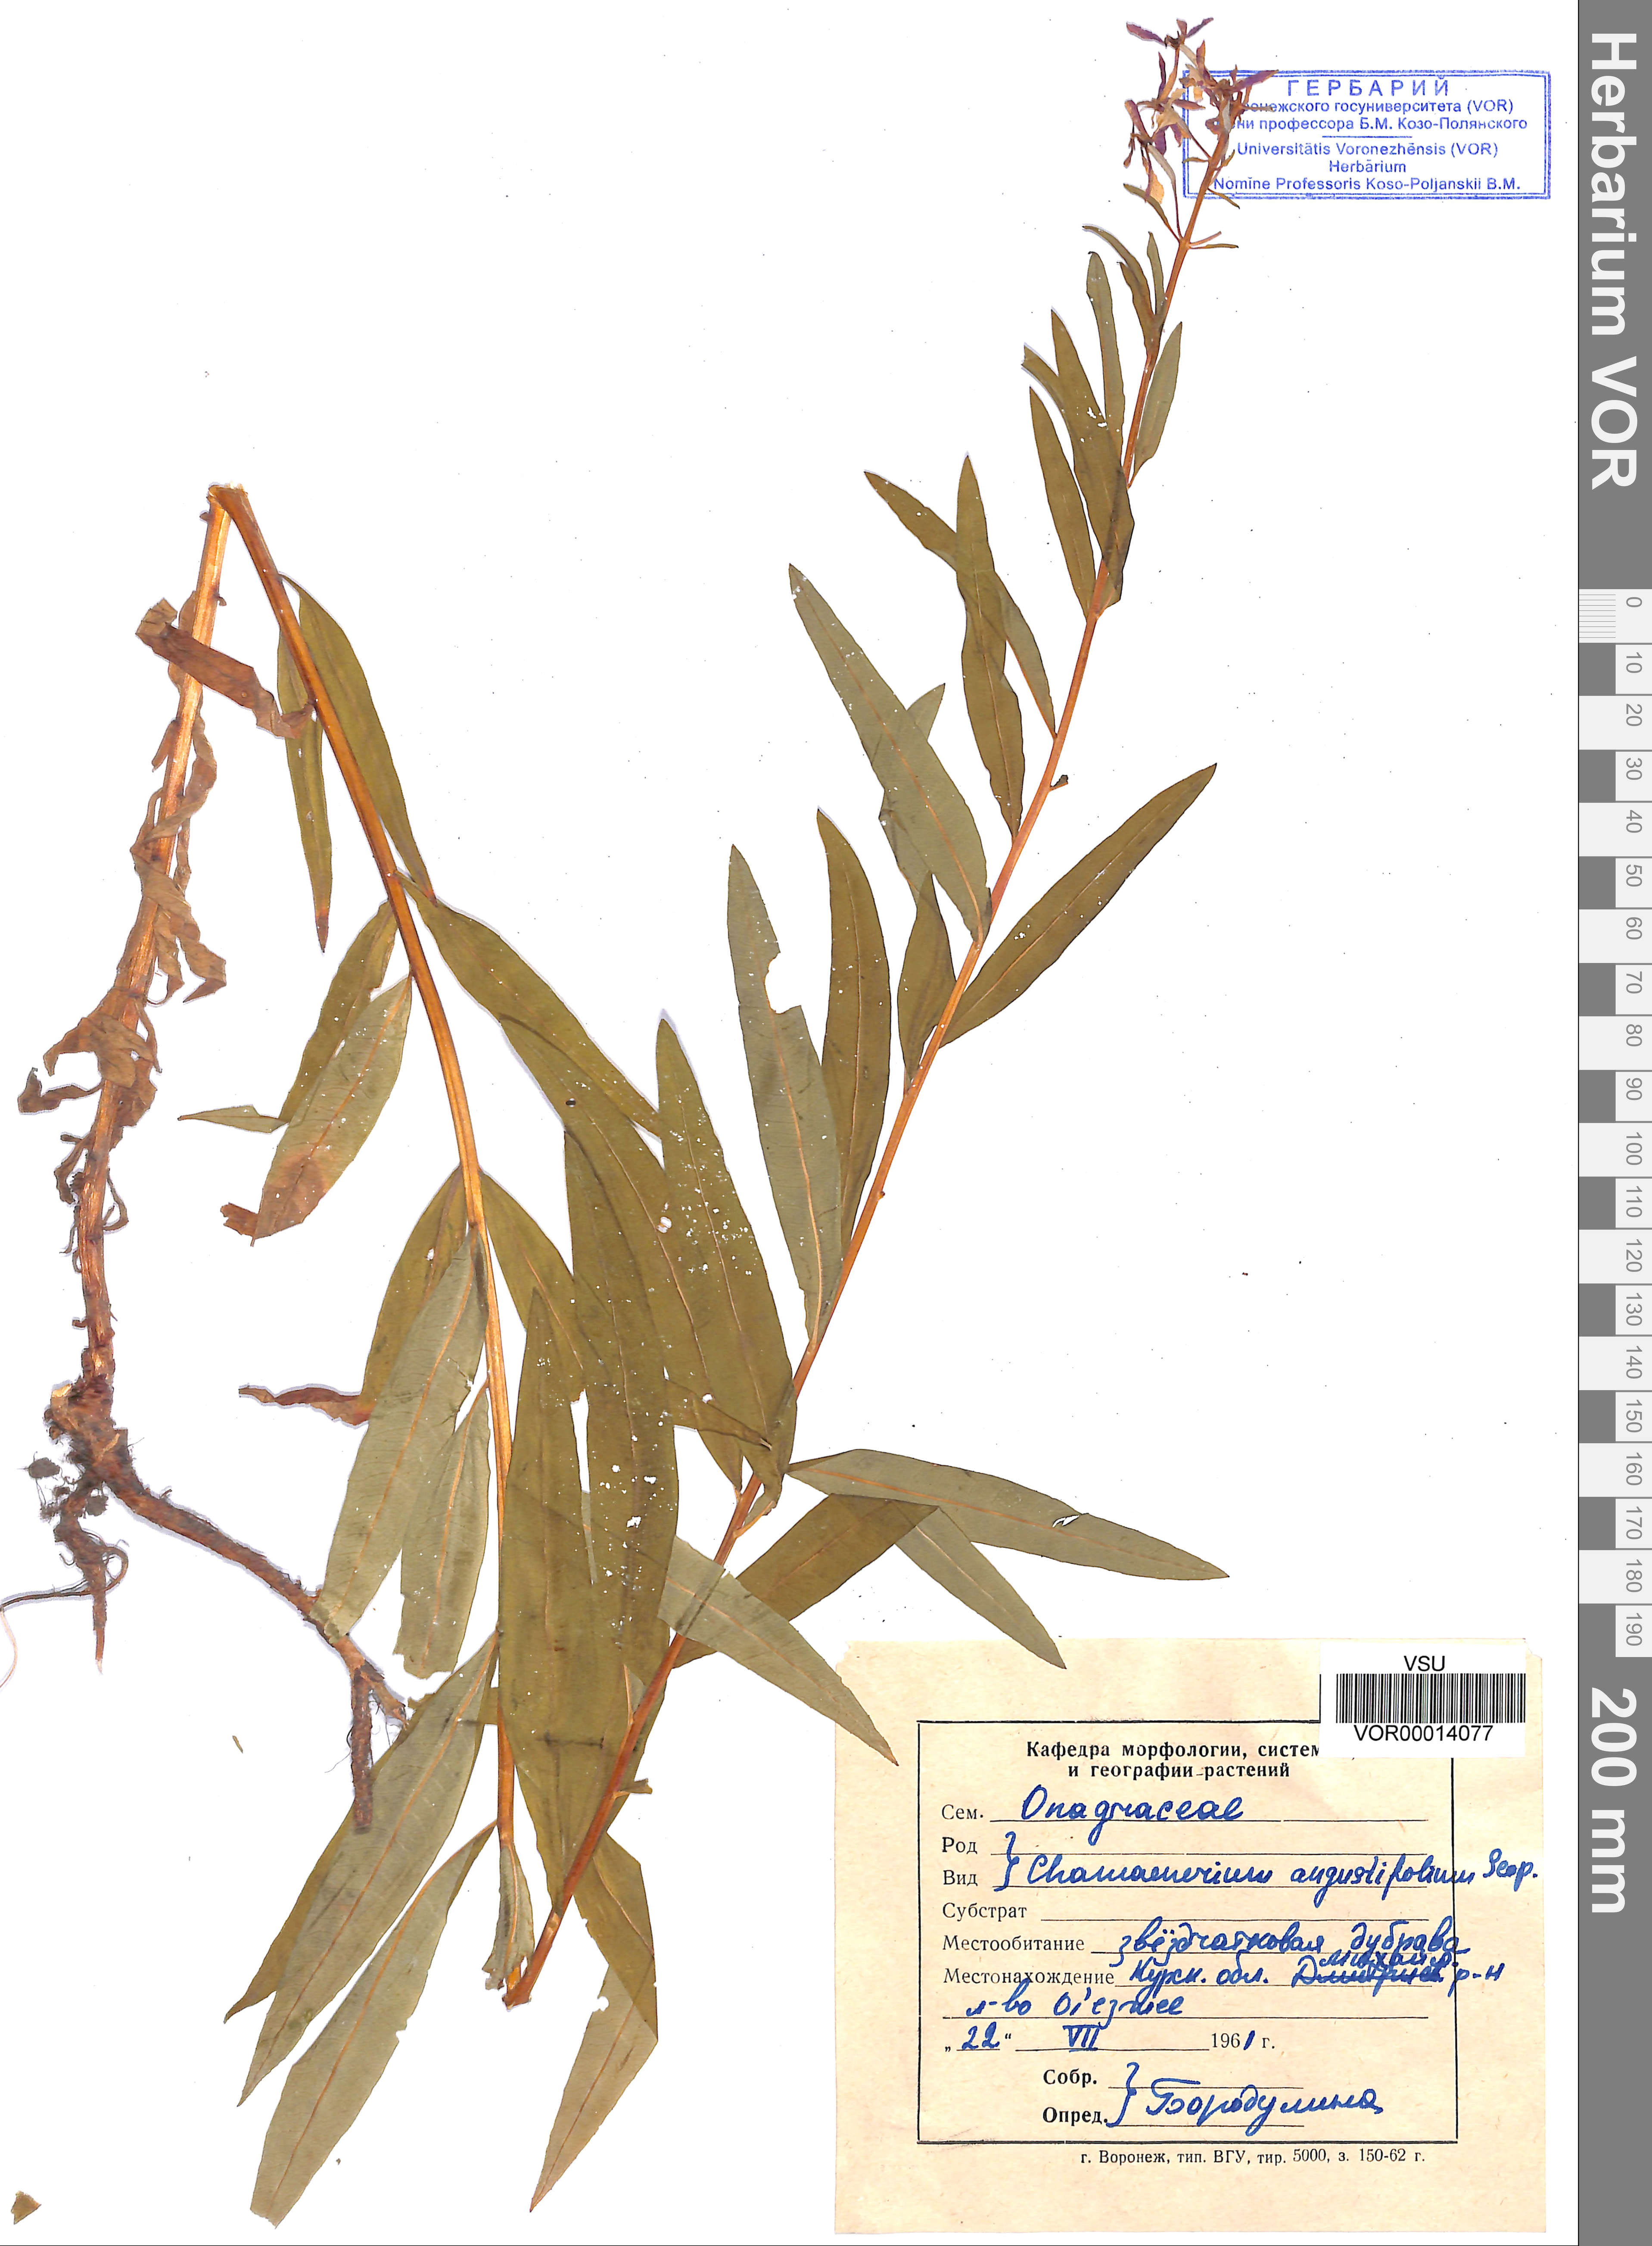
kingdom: Plantae
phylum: Tracheophyta
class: Magnoliopsida
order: Myrtales
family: Onagraceae
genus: Chamaenerion
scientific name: Chamaenerion angustifolium
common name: Fireweed
